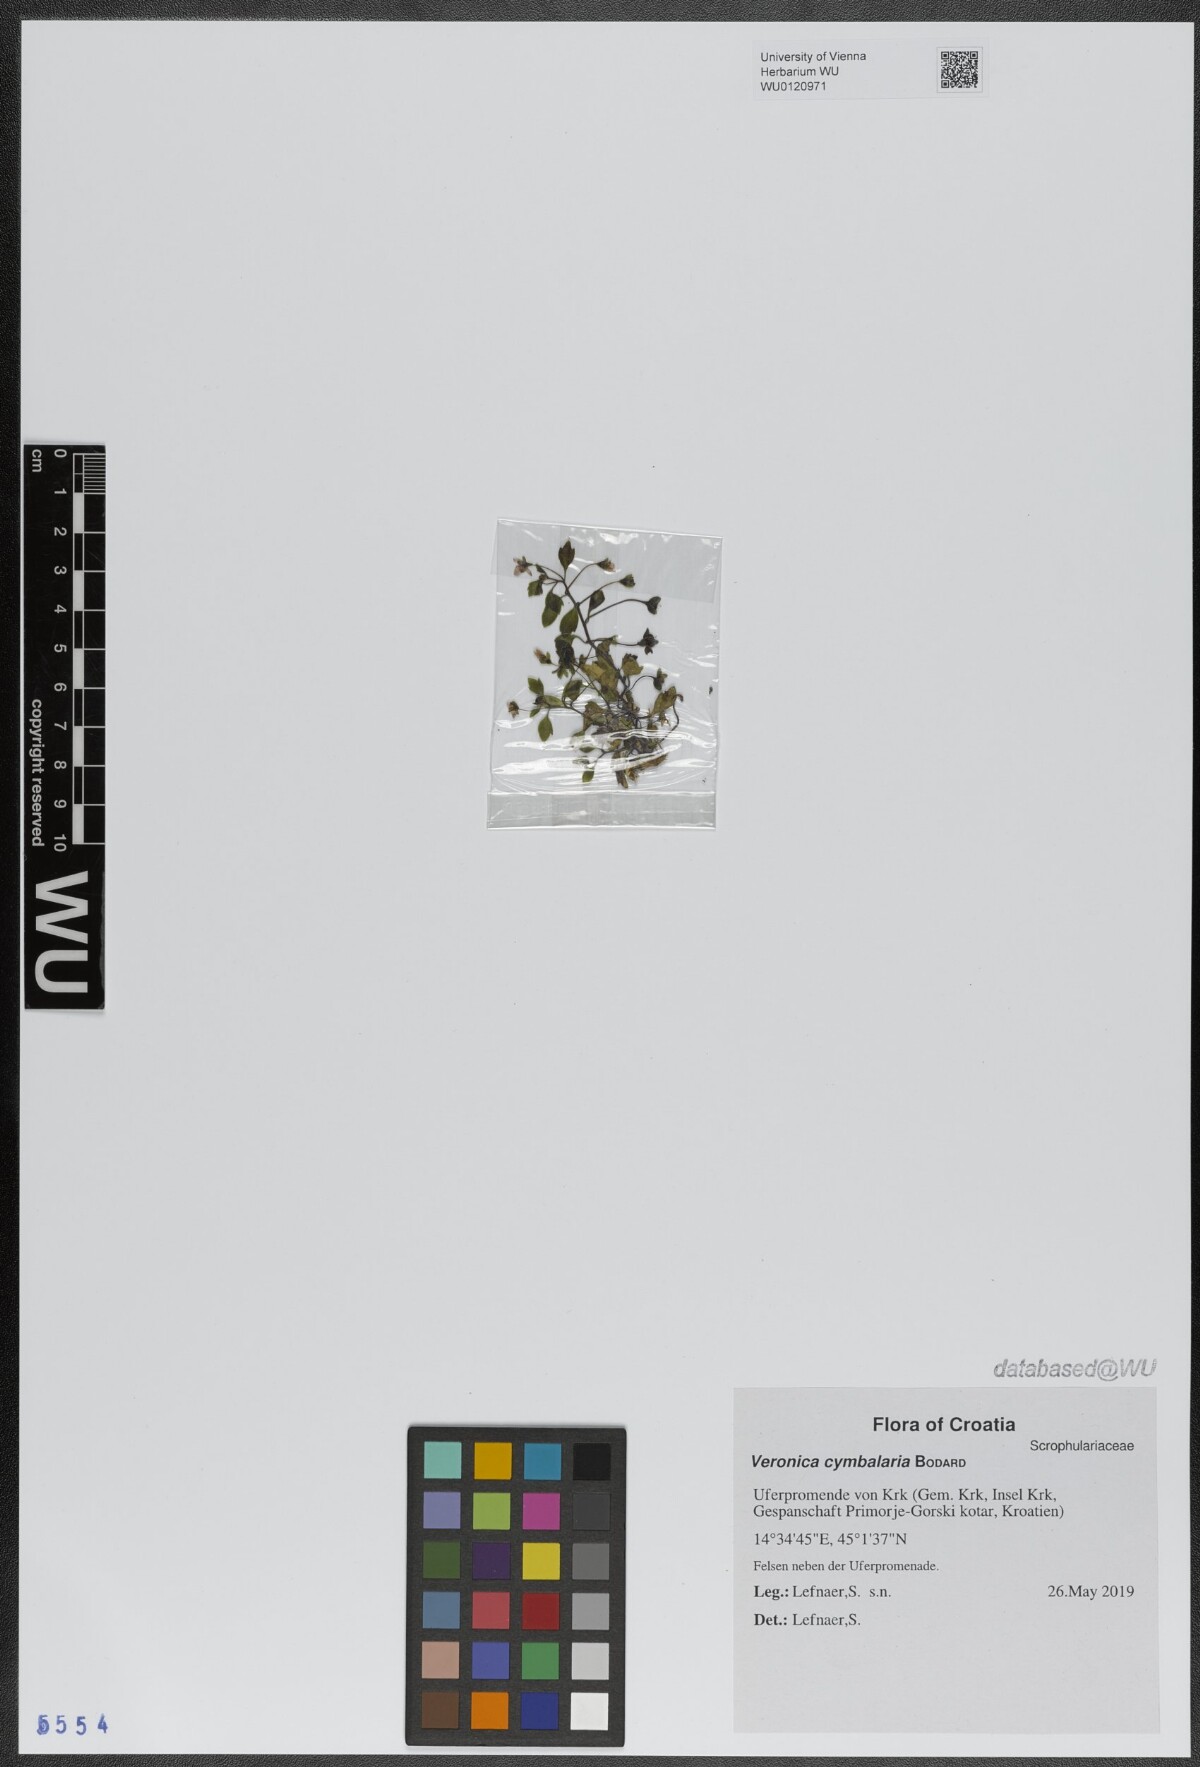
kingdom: Plantae
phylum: Tracheophyta
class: Magnoliopsida
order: Lamiales
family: Plantaginaceae
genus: Veronica
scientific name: Veronica cymbalaria
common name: Pale speedwell
